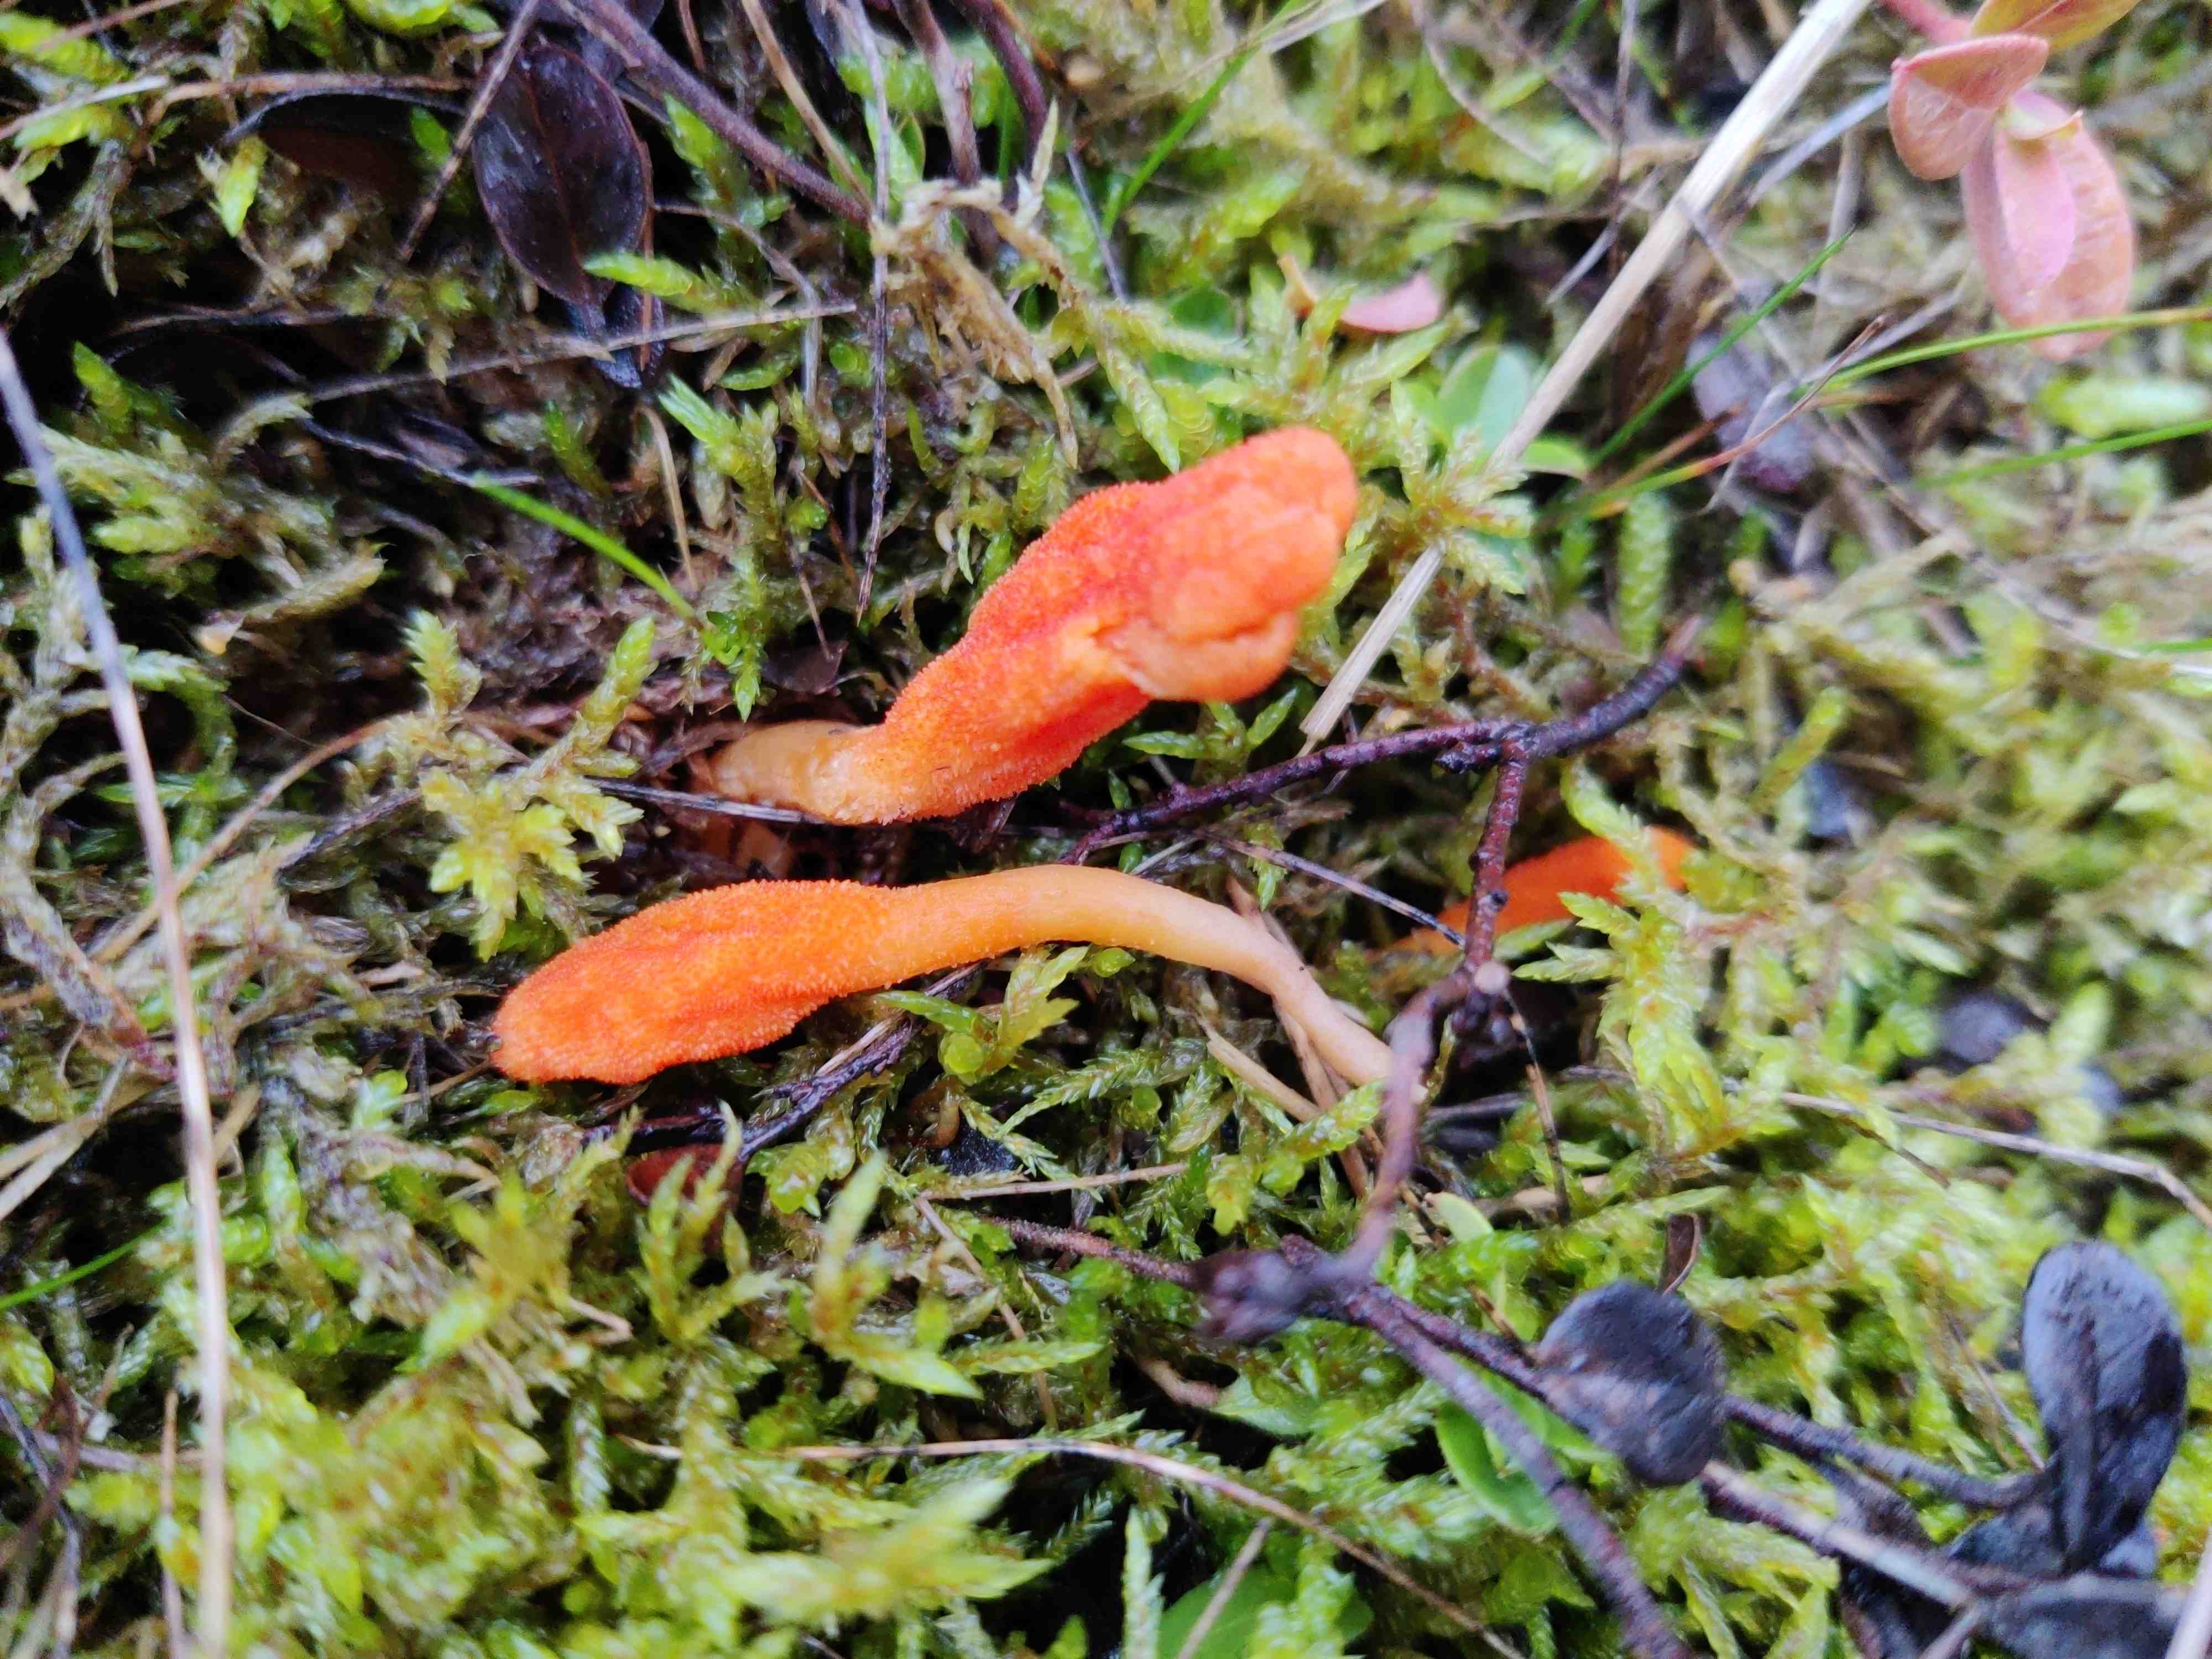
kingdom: Fungi
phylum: Ascomycota
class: Sordariomycetes
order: Hypocreales
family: Cordycipitaceae
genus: Cordyceps
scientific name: Cordyceps militaris
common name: puppe-snyltekølle
